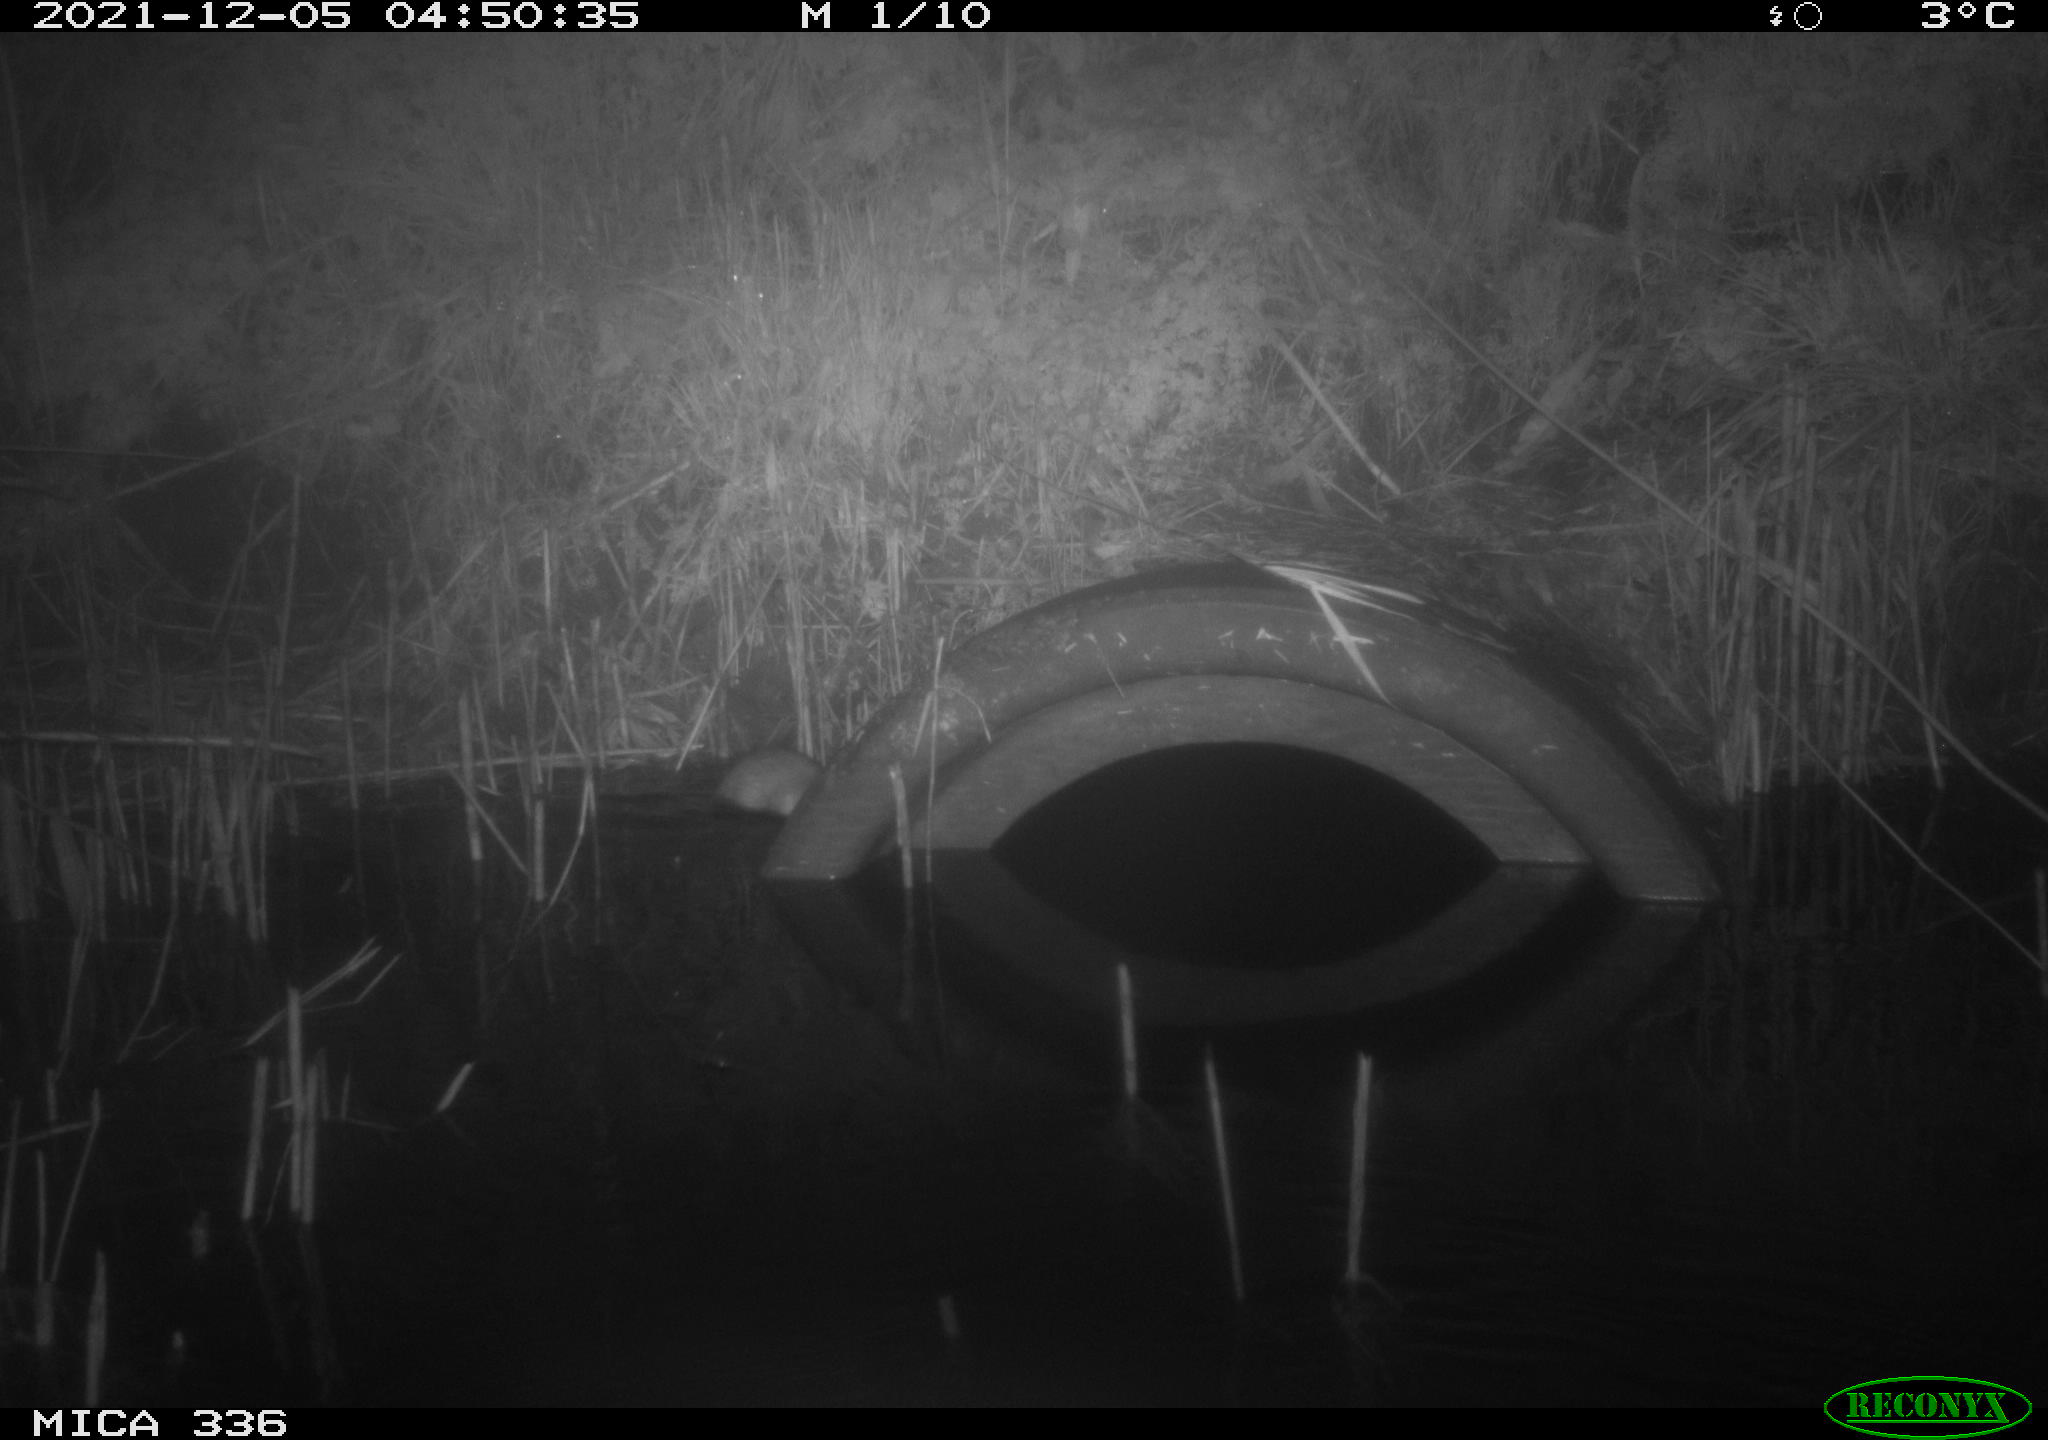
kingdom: Animalia
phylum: Chordata
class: Mammalia
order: Rodentia
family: Muridae
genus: Rattus
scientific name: Rattus norvegicus
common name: Brown rat
